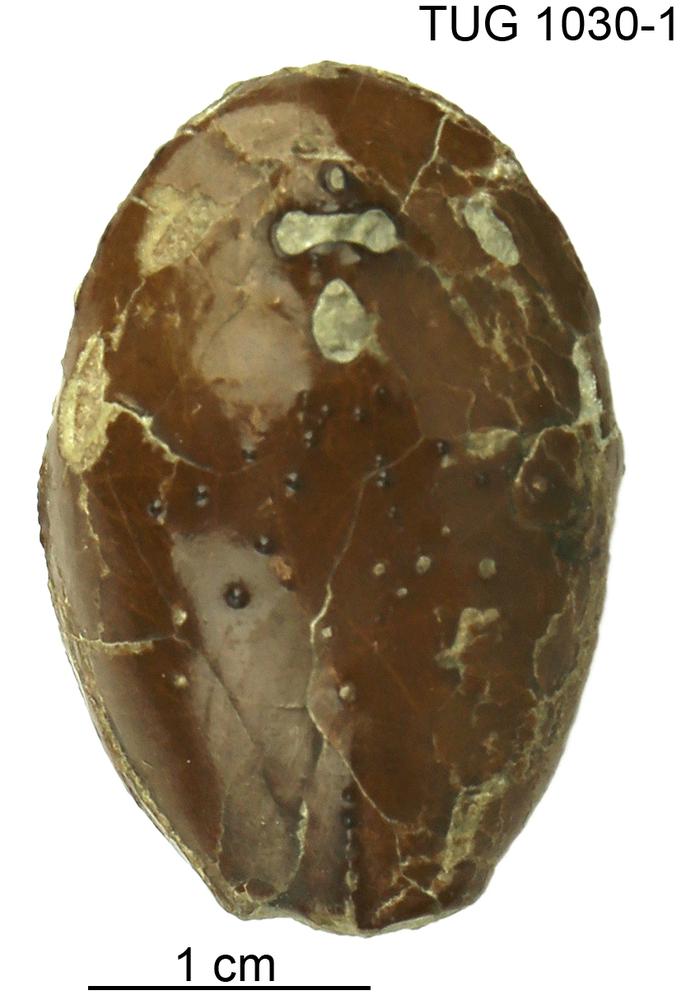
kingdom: Animalia
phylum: Chordata
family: Tremataspididae
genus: Tremataspis
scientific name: Tremataspis
